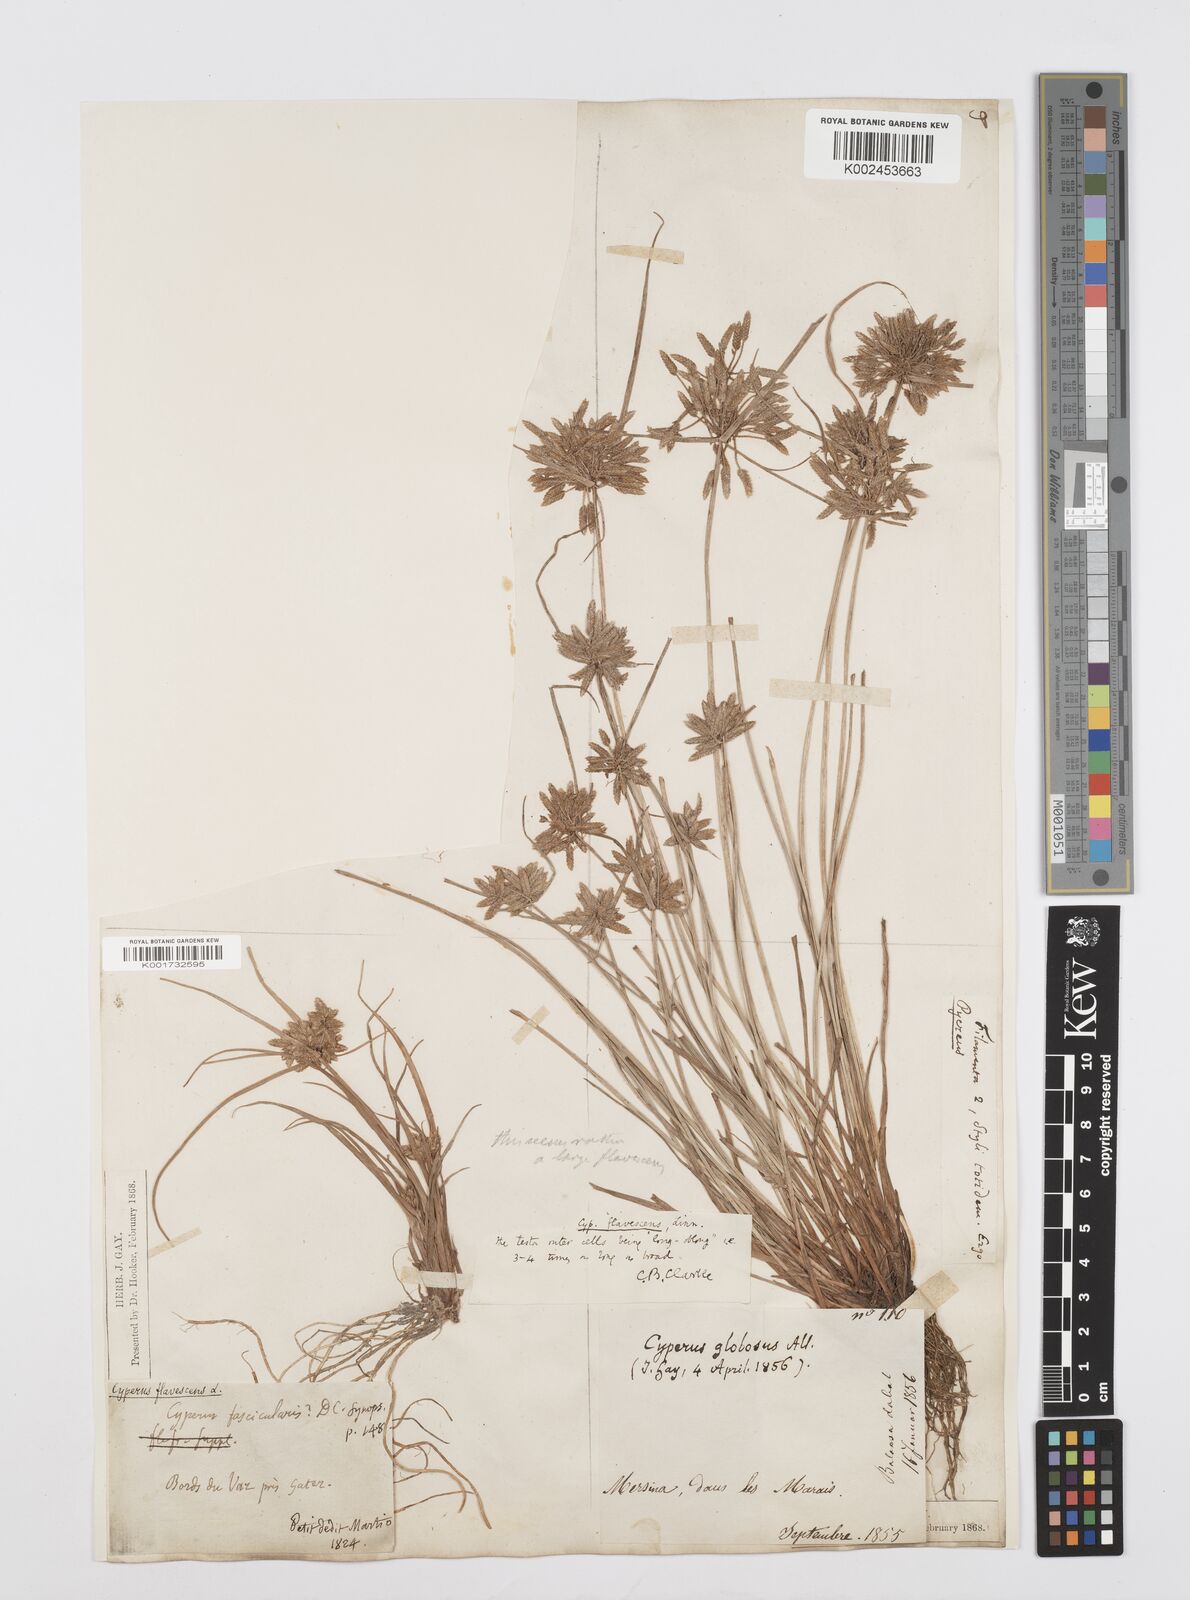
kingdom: Plantae
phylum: Tracheophyta
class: Liliopsida
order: Poales
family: Cyperaceae
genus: Cyperus
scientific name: Cyperus flavescens
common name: Yellow galingale
